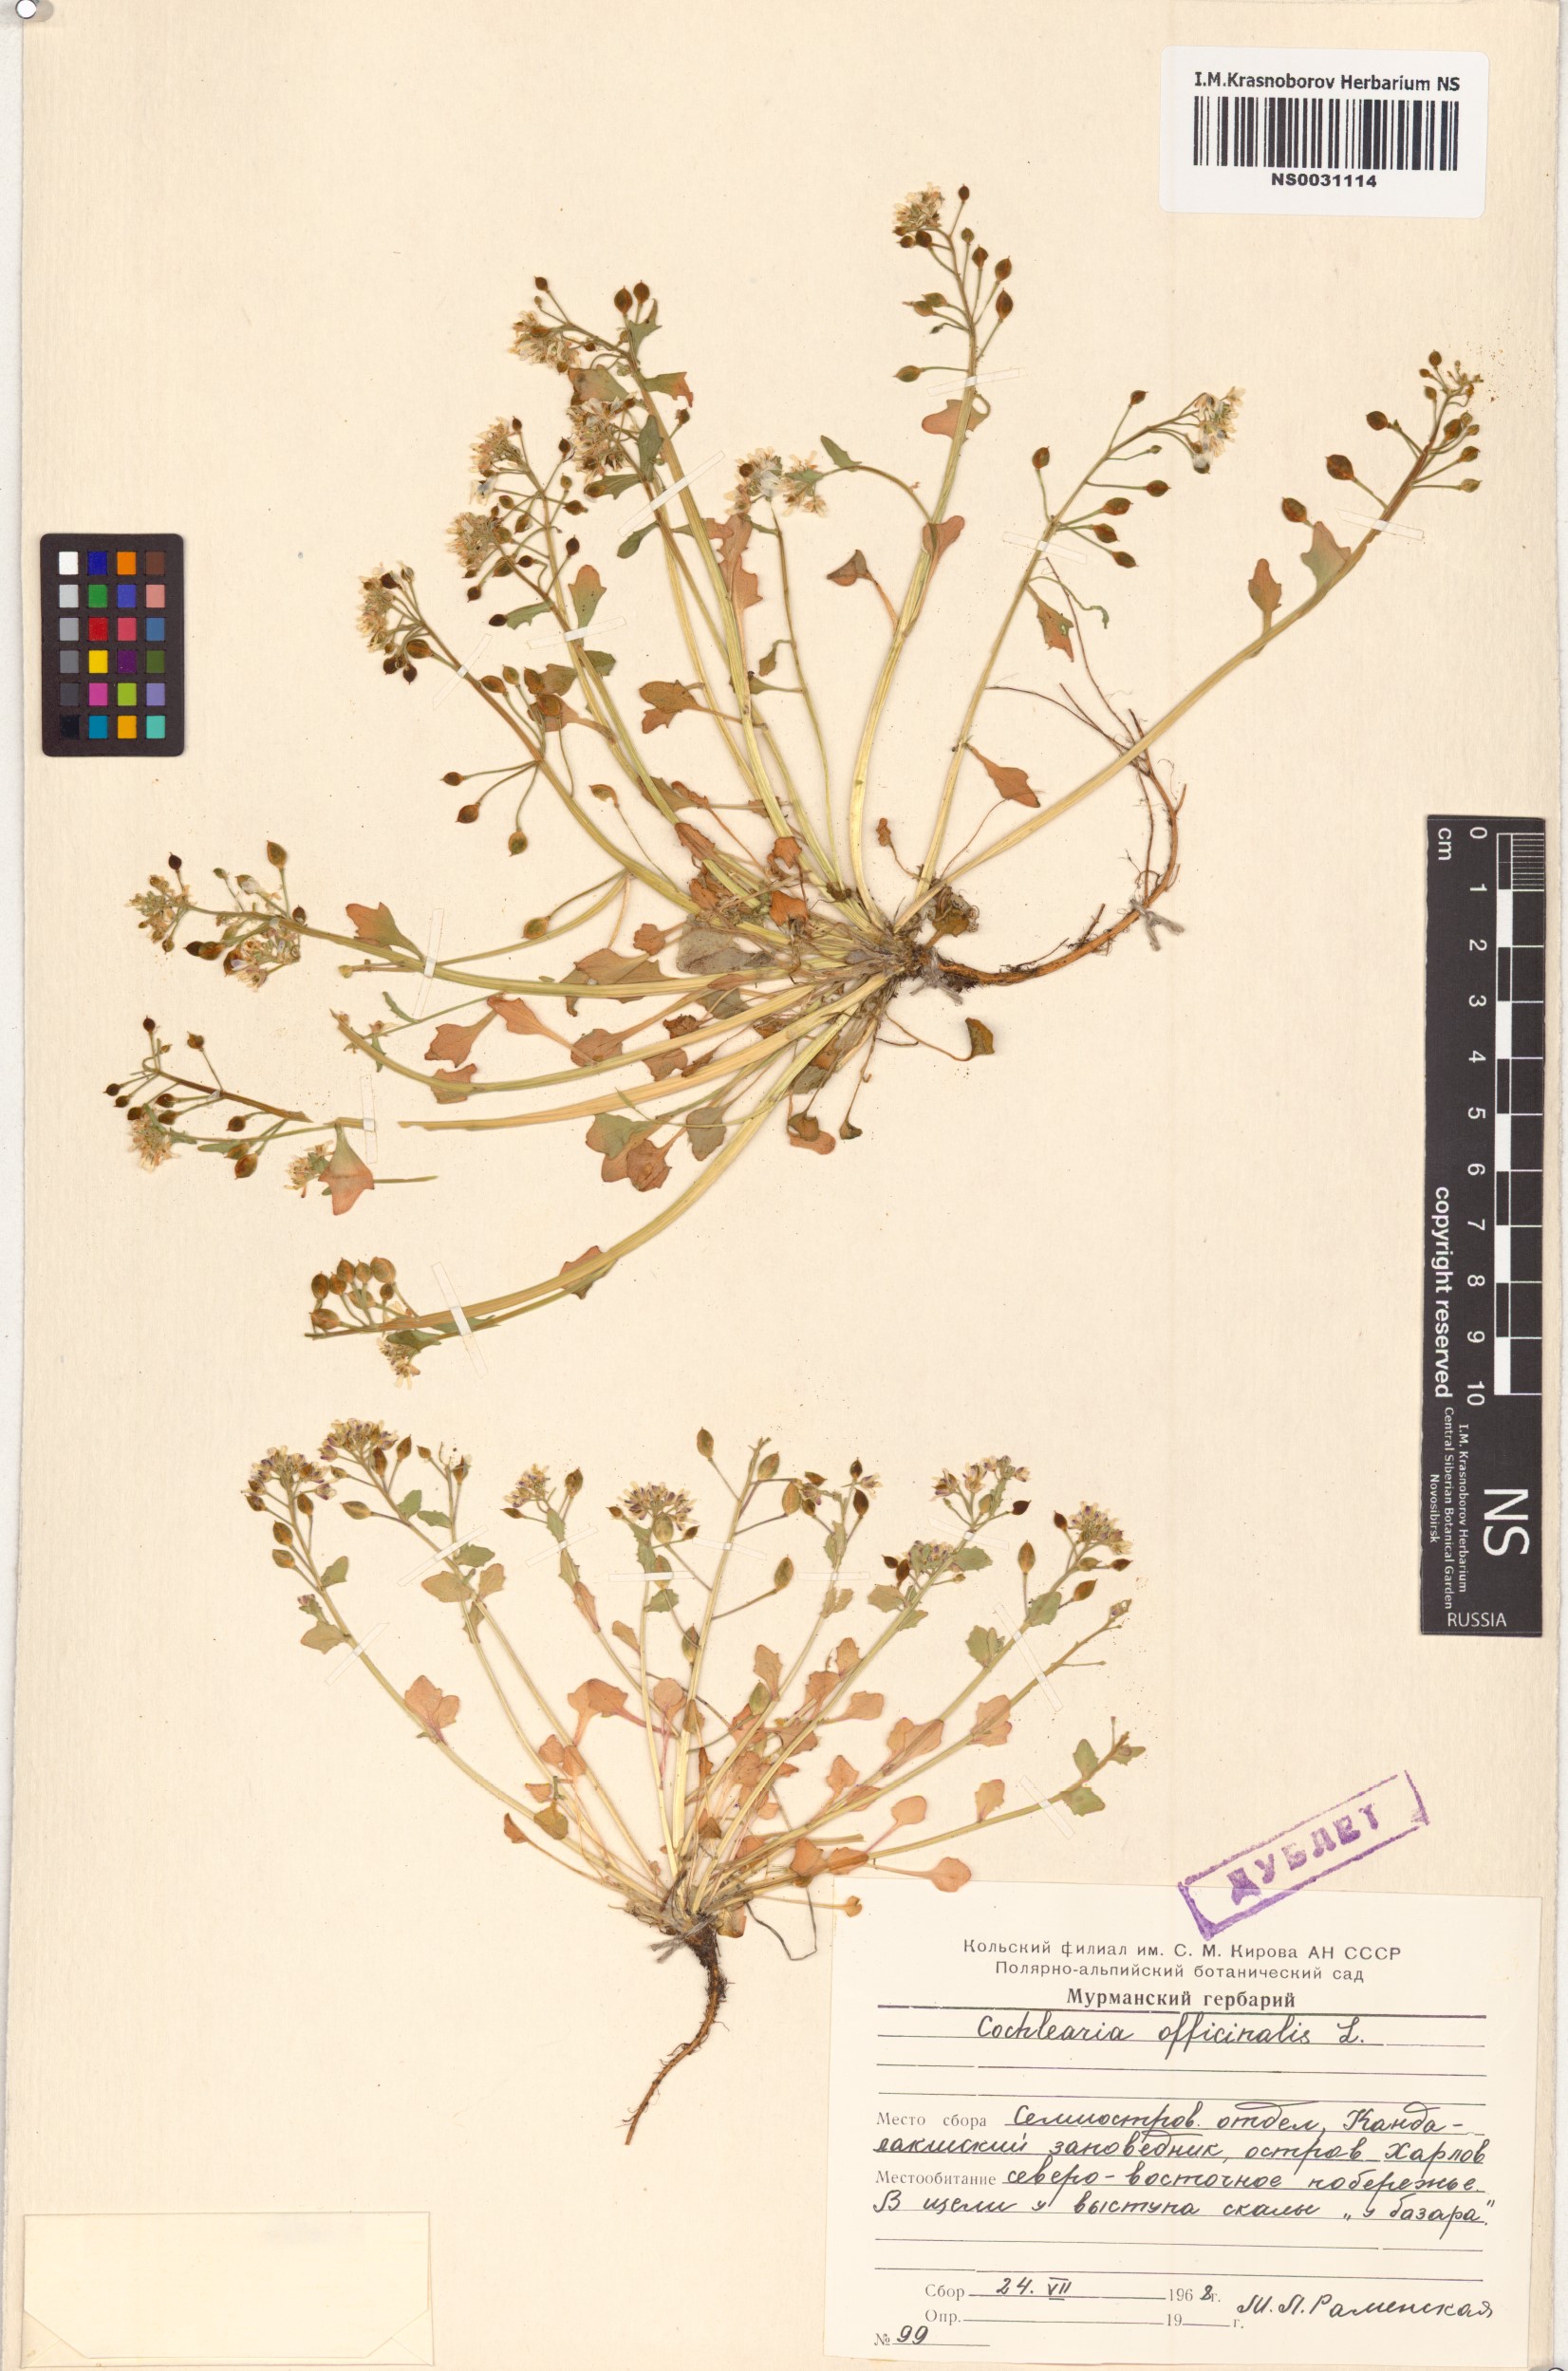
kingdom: Plantae
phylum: Tracheophyta
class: Magnoliopsida
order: Brassicales
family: Brassicaceae
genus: Cochlearia
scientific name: Cochlearia officinalis
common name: Scurvy-grass
